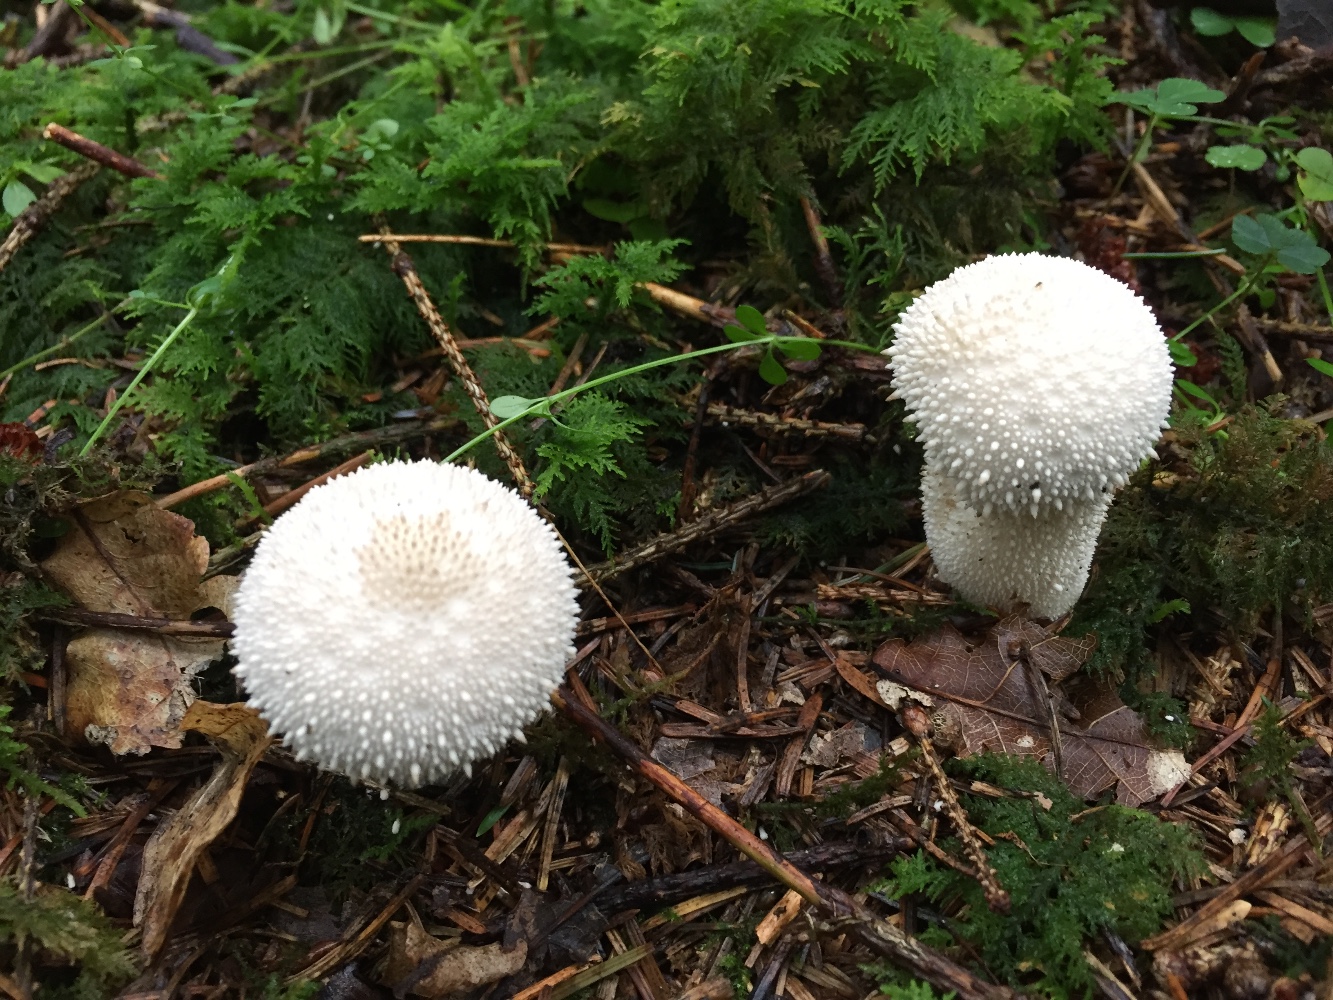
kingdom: Fungi
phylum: Basidiomycota
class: Agaricomycetes
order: Agaricales
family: Lycoperdaceae
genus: Lycoperdon
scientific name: Lycoperdon perlatum
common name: krystal-støvbold
